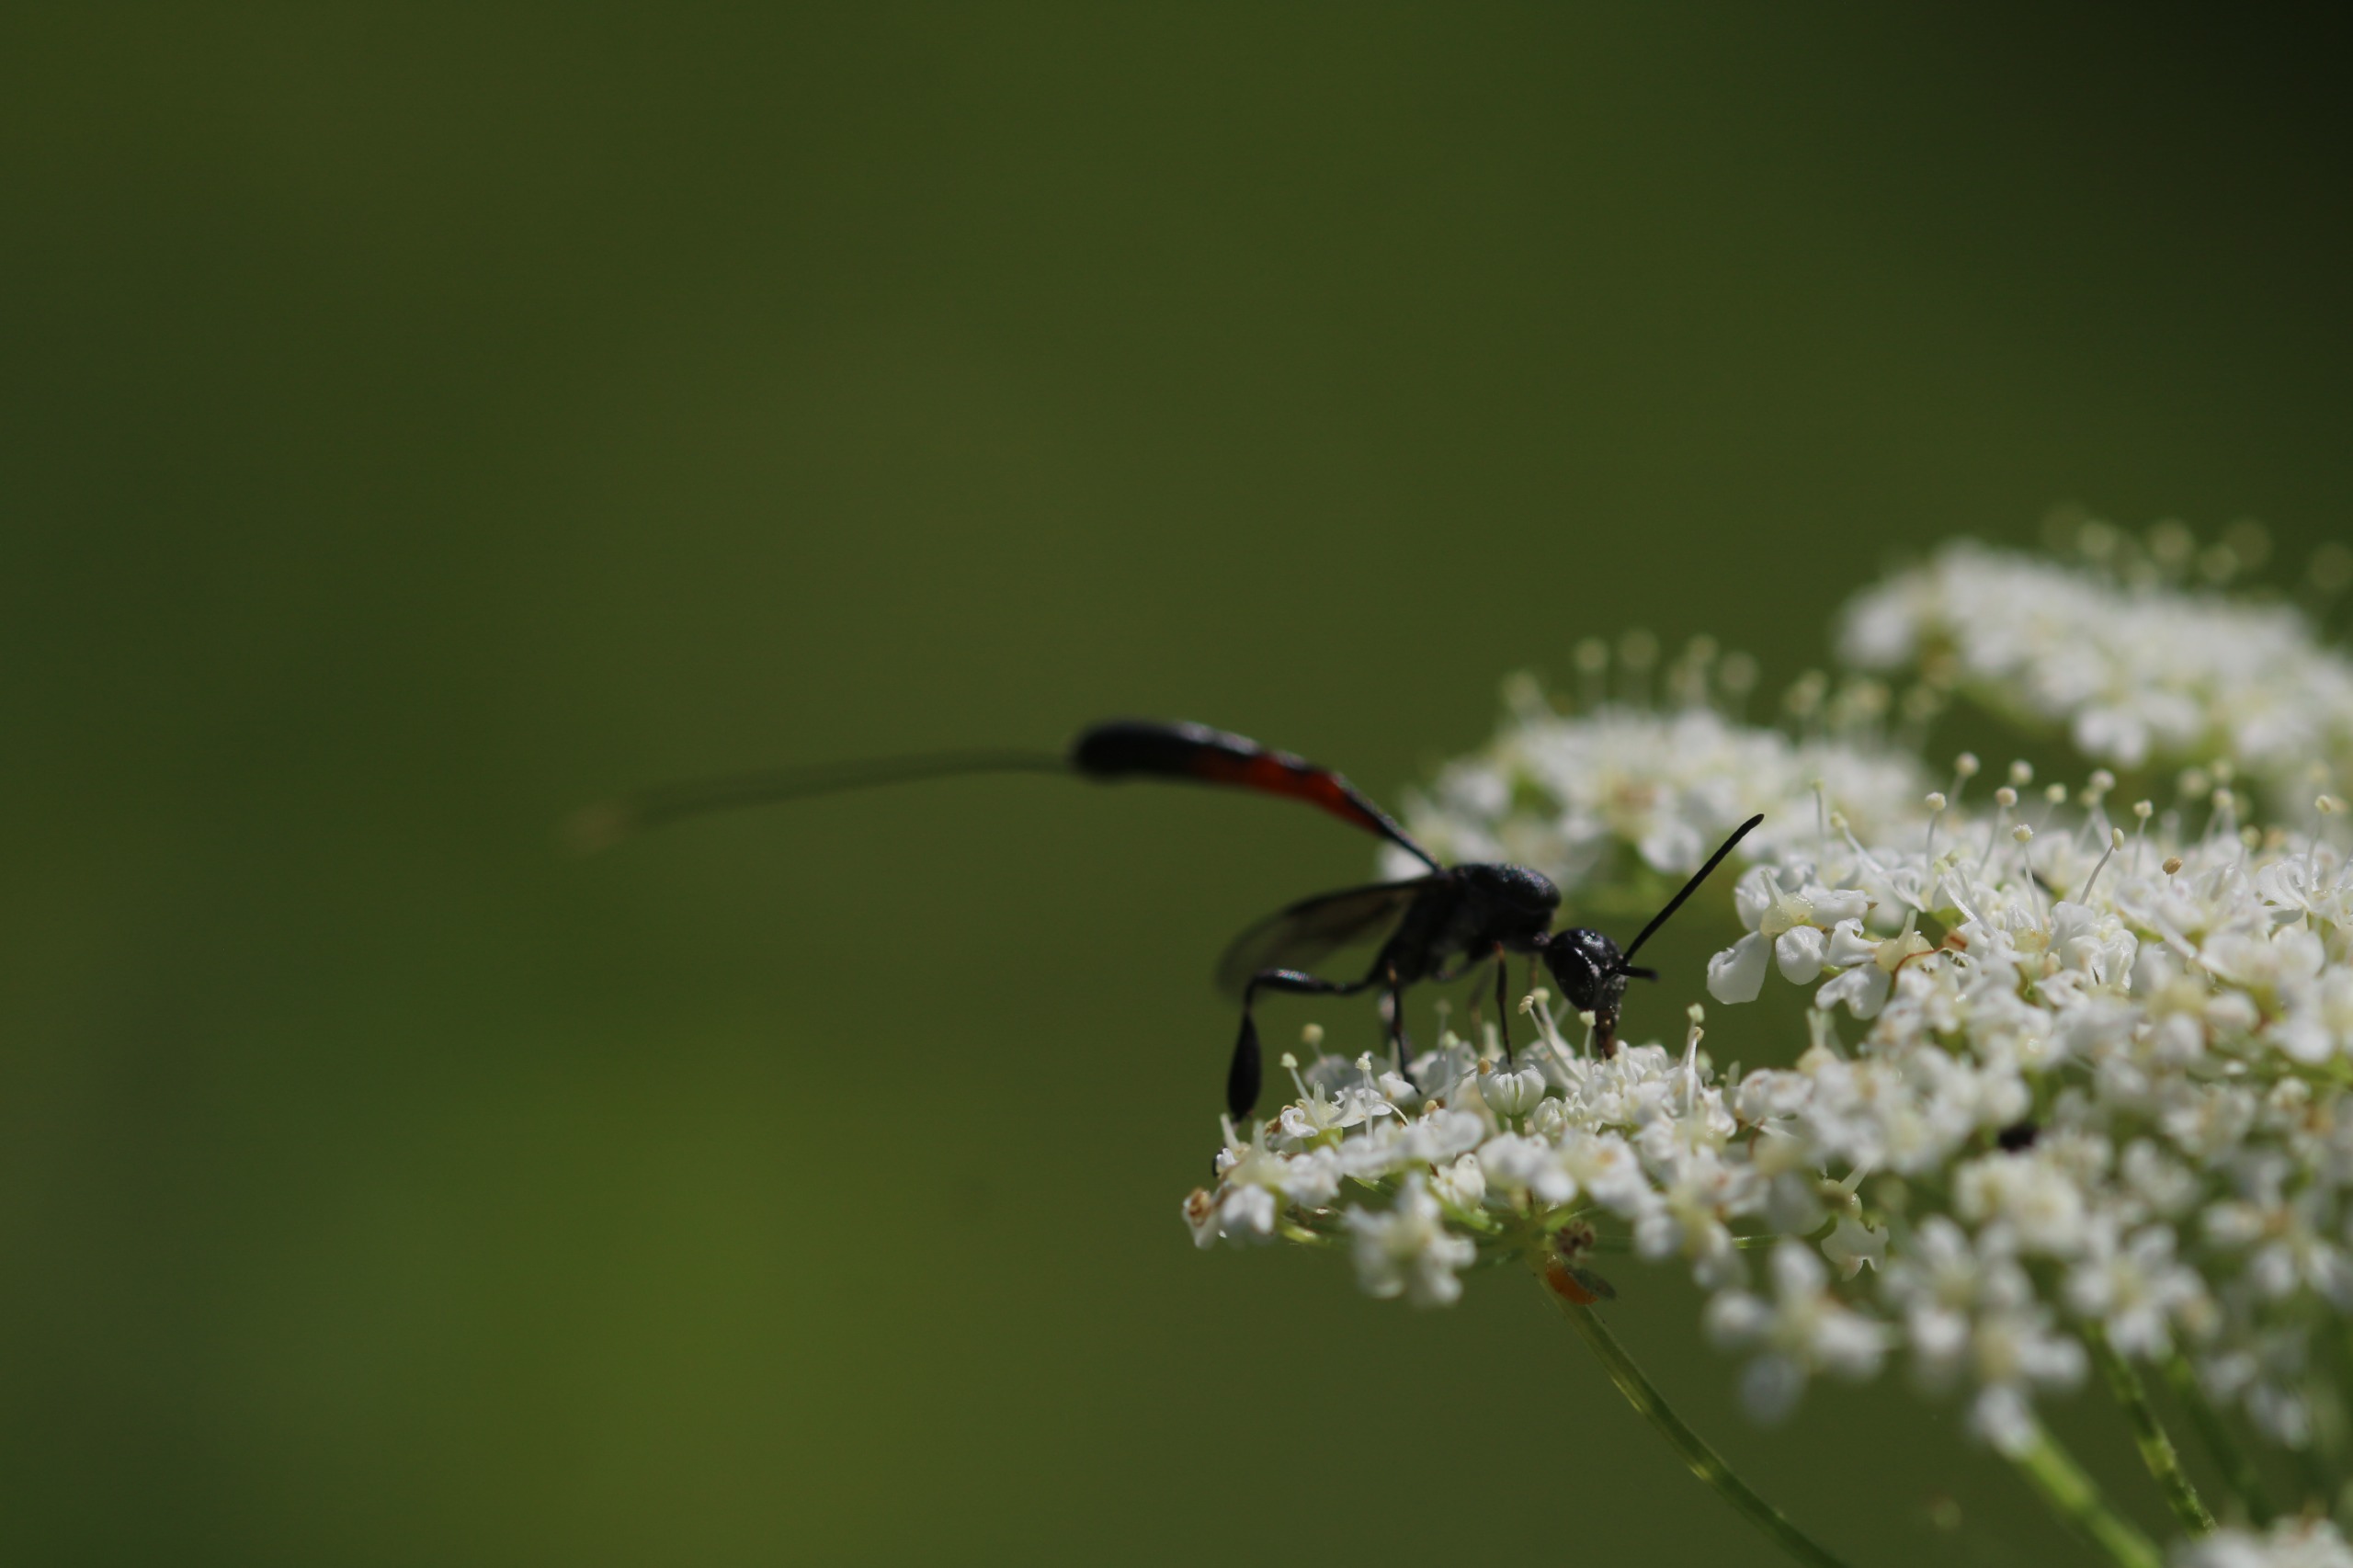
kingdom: Animalia
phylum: Arthropoda
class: Insecta
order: Hymenoptera
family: Gasteruptiidae
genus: Gasteruption
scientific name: Gasteruption
